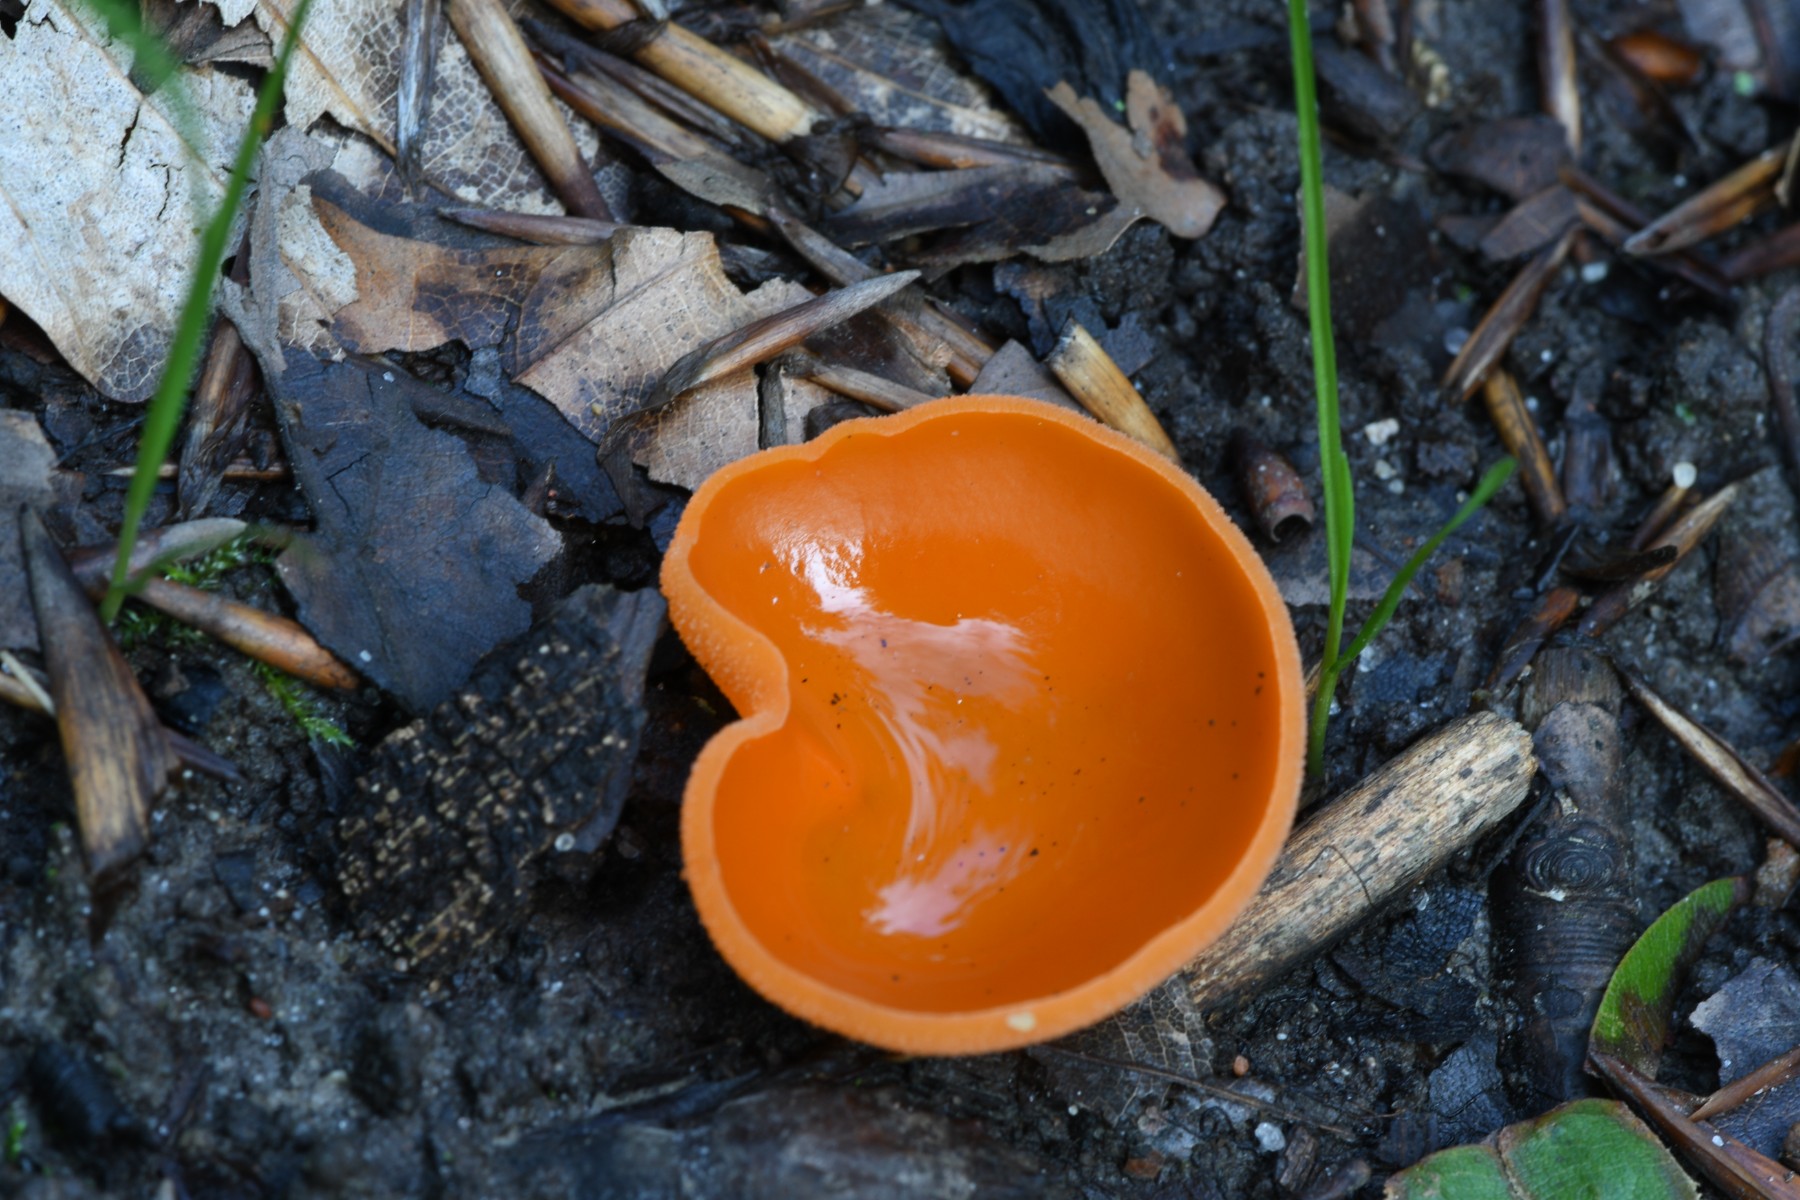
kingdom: Fungi
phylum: Ascomycota
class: Pezizomycetes
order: Pezizales
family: Pyronemataceae
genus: Aleuria
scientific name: Aleuria aurantia
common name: almindelig orangebæger
